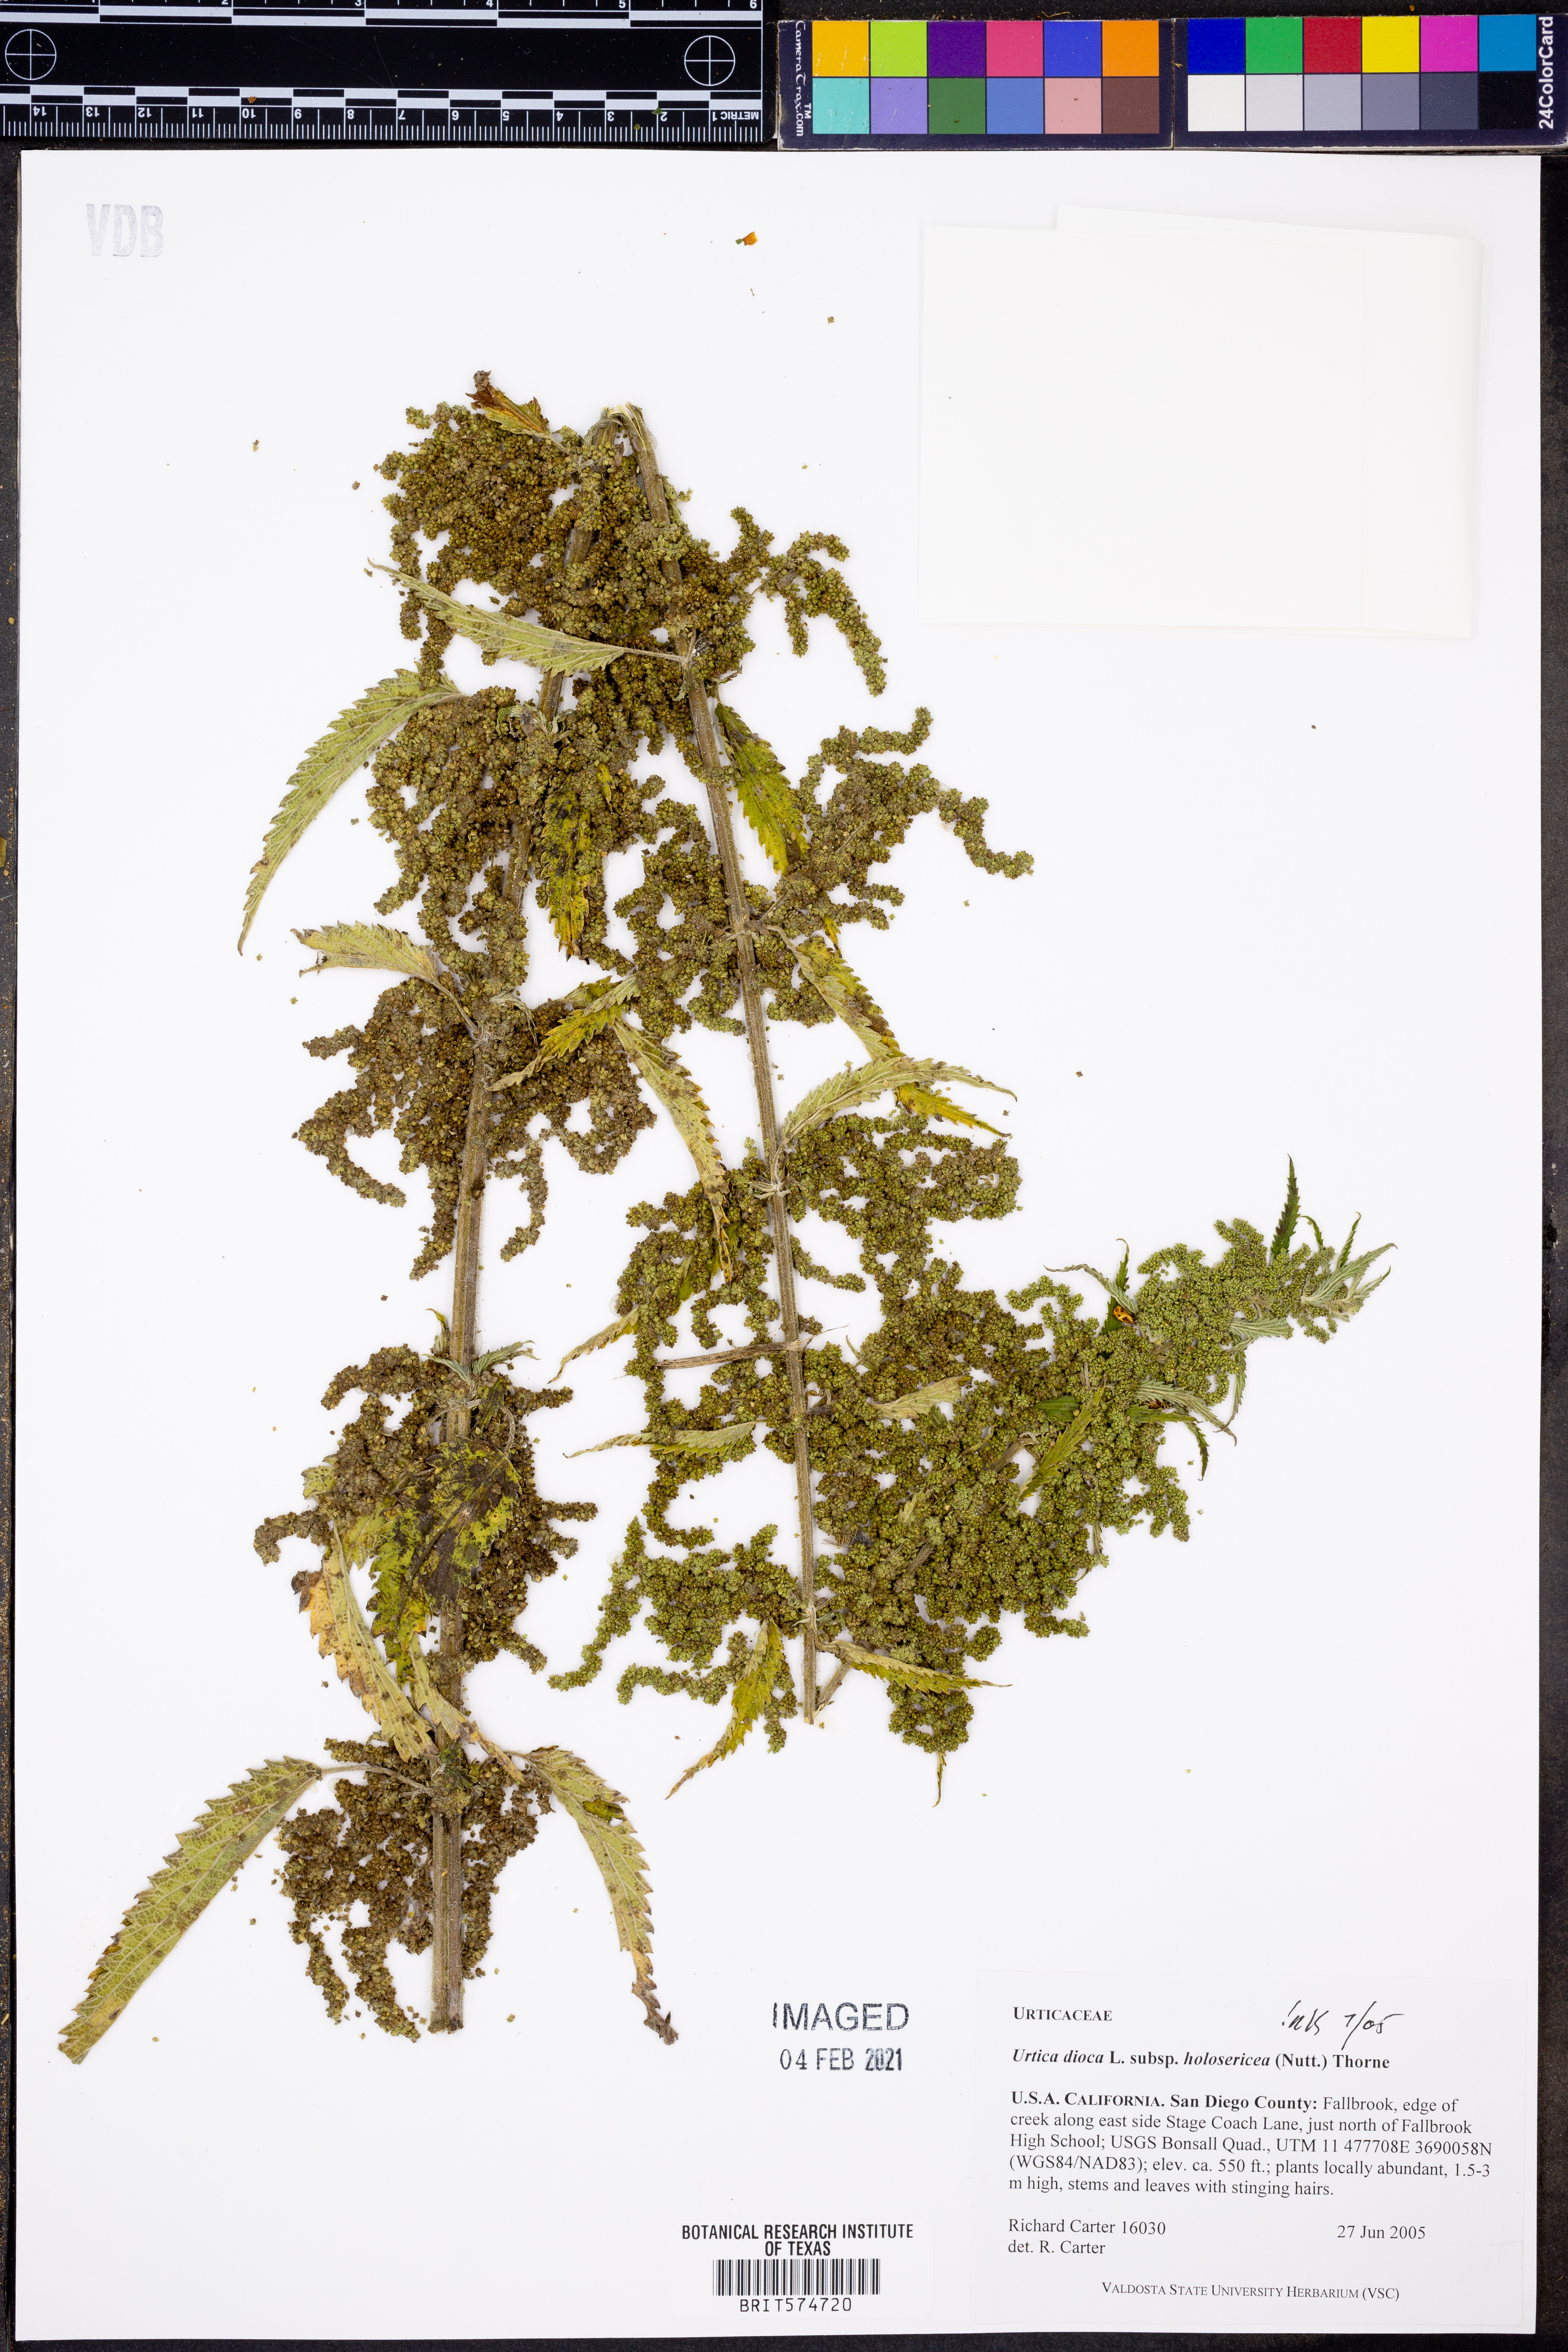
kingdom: Plantae
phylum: Tracheophyta
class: Magnoliopsida
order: Rosales
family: Urticaceae
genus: Urtica
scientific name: Urtica gracilis
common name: Slender stinging nettle
